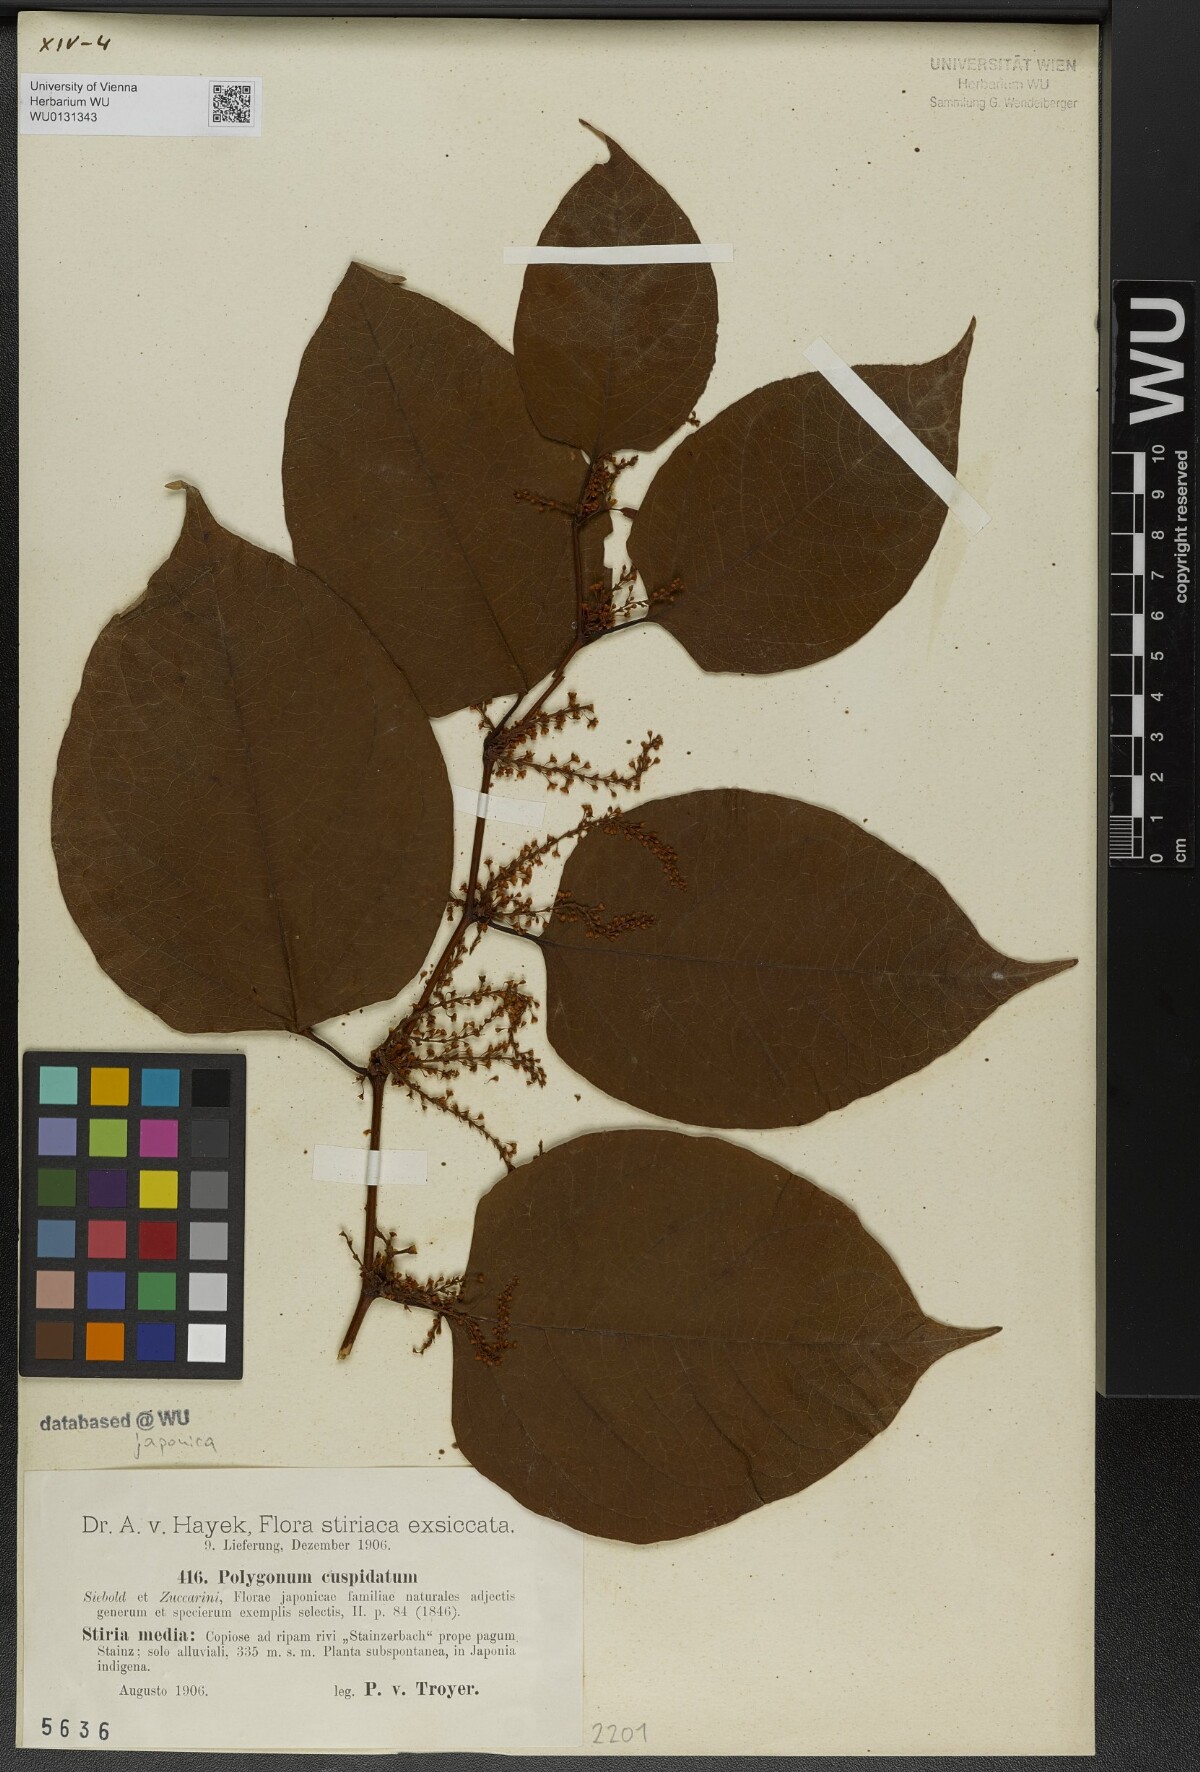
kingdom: Plantae
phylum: Tracheophyta
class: Magnoliopsida
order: Caryophyllales
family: Polygonaceae
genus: Reynoutria
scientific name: Reynoutria japonica
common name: Japanese knotweed
